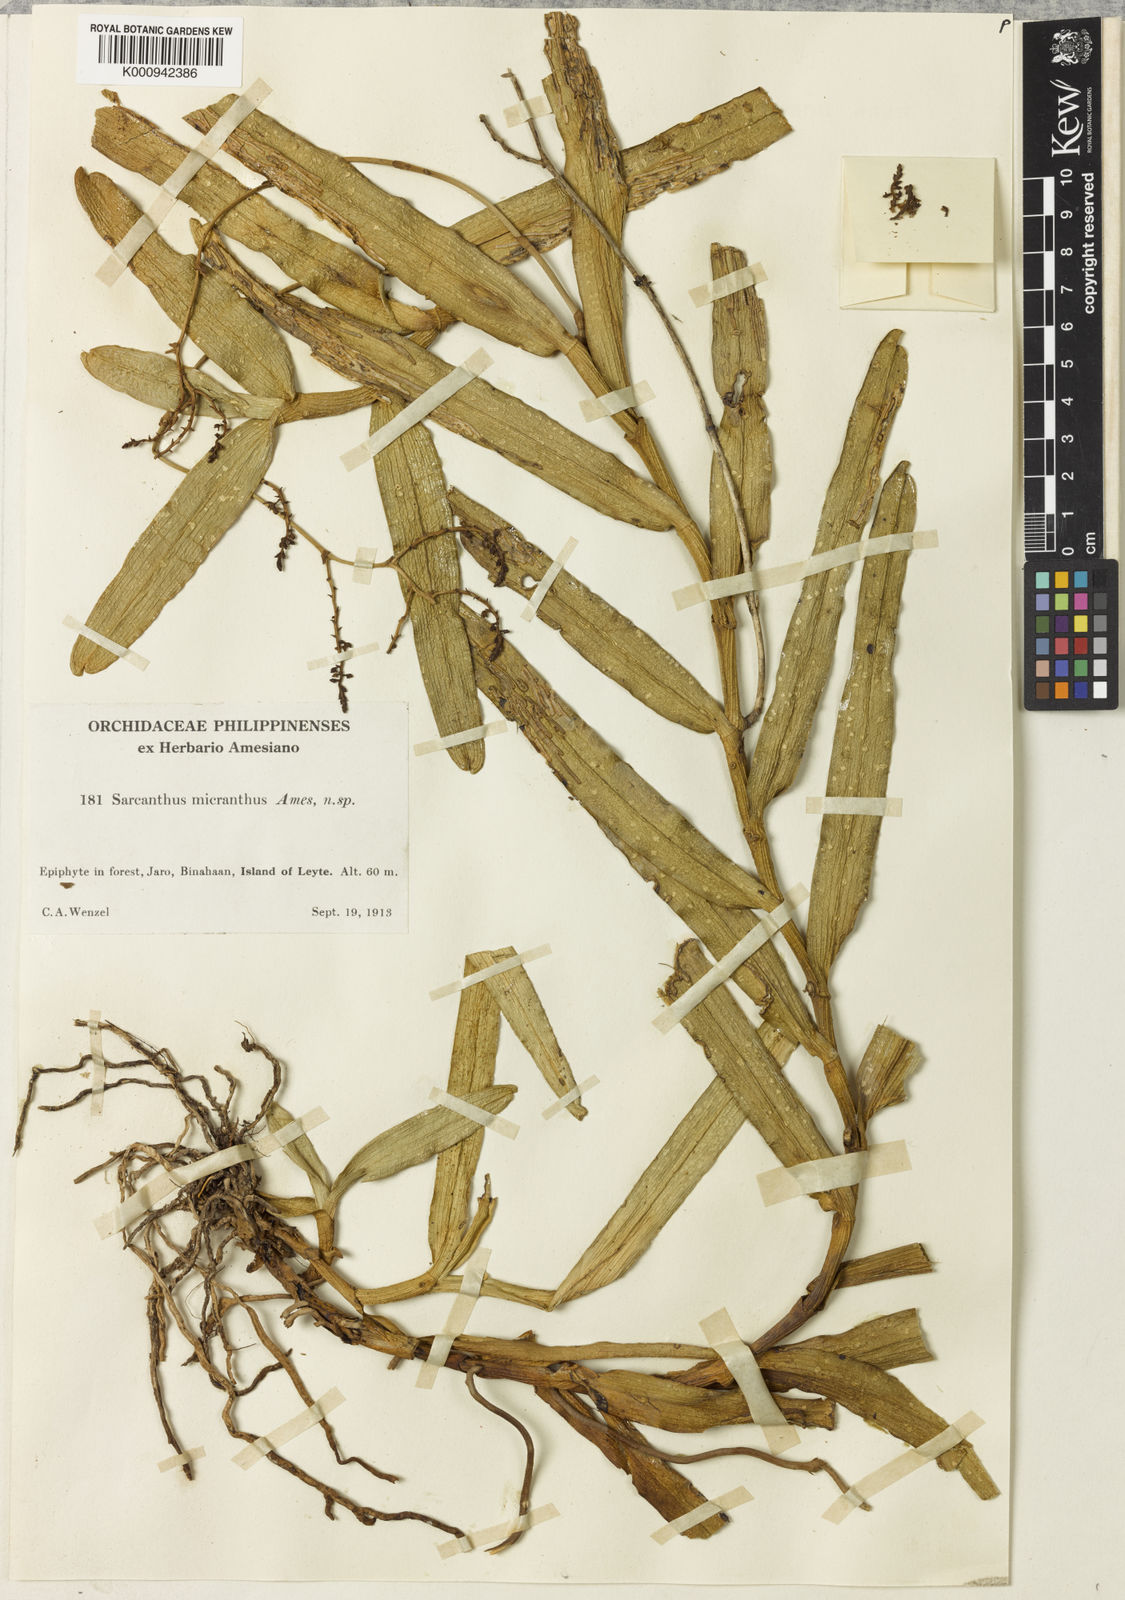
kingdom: Plantae
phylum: Tracheophyta
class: Liliopsida
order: Asparagales
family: Orchidaceae
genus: Cleisostoma
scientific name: Cleisostoma uraiense
